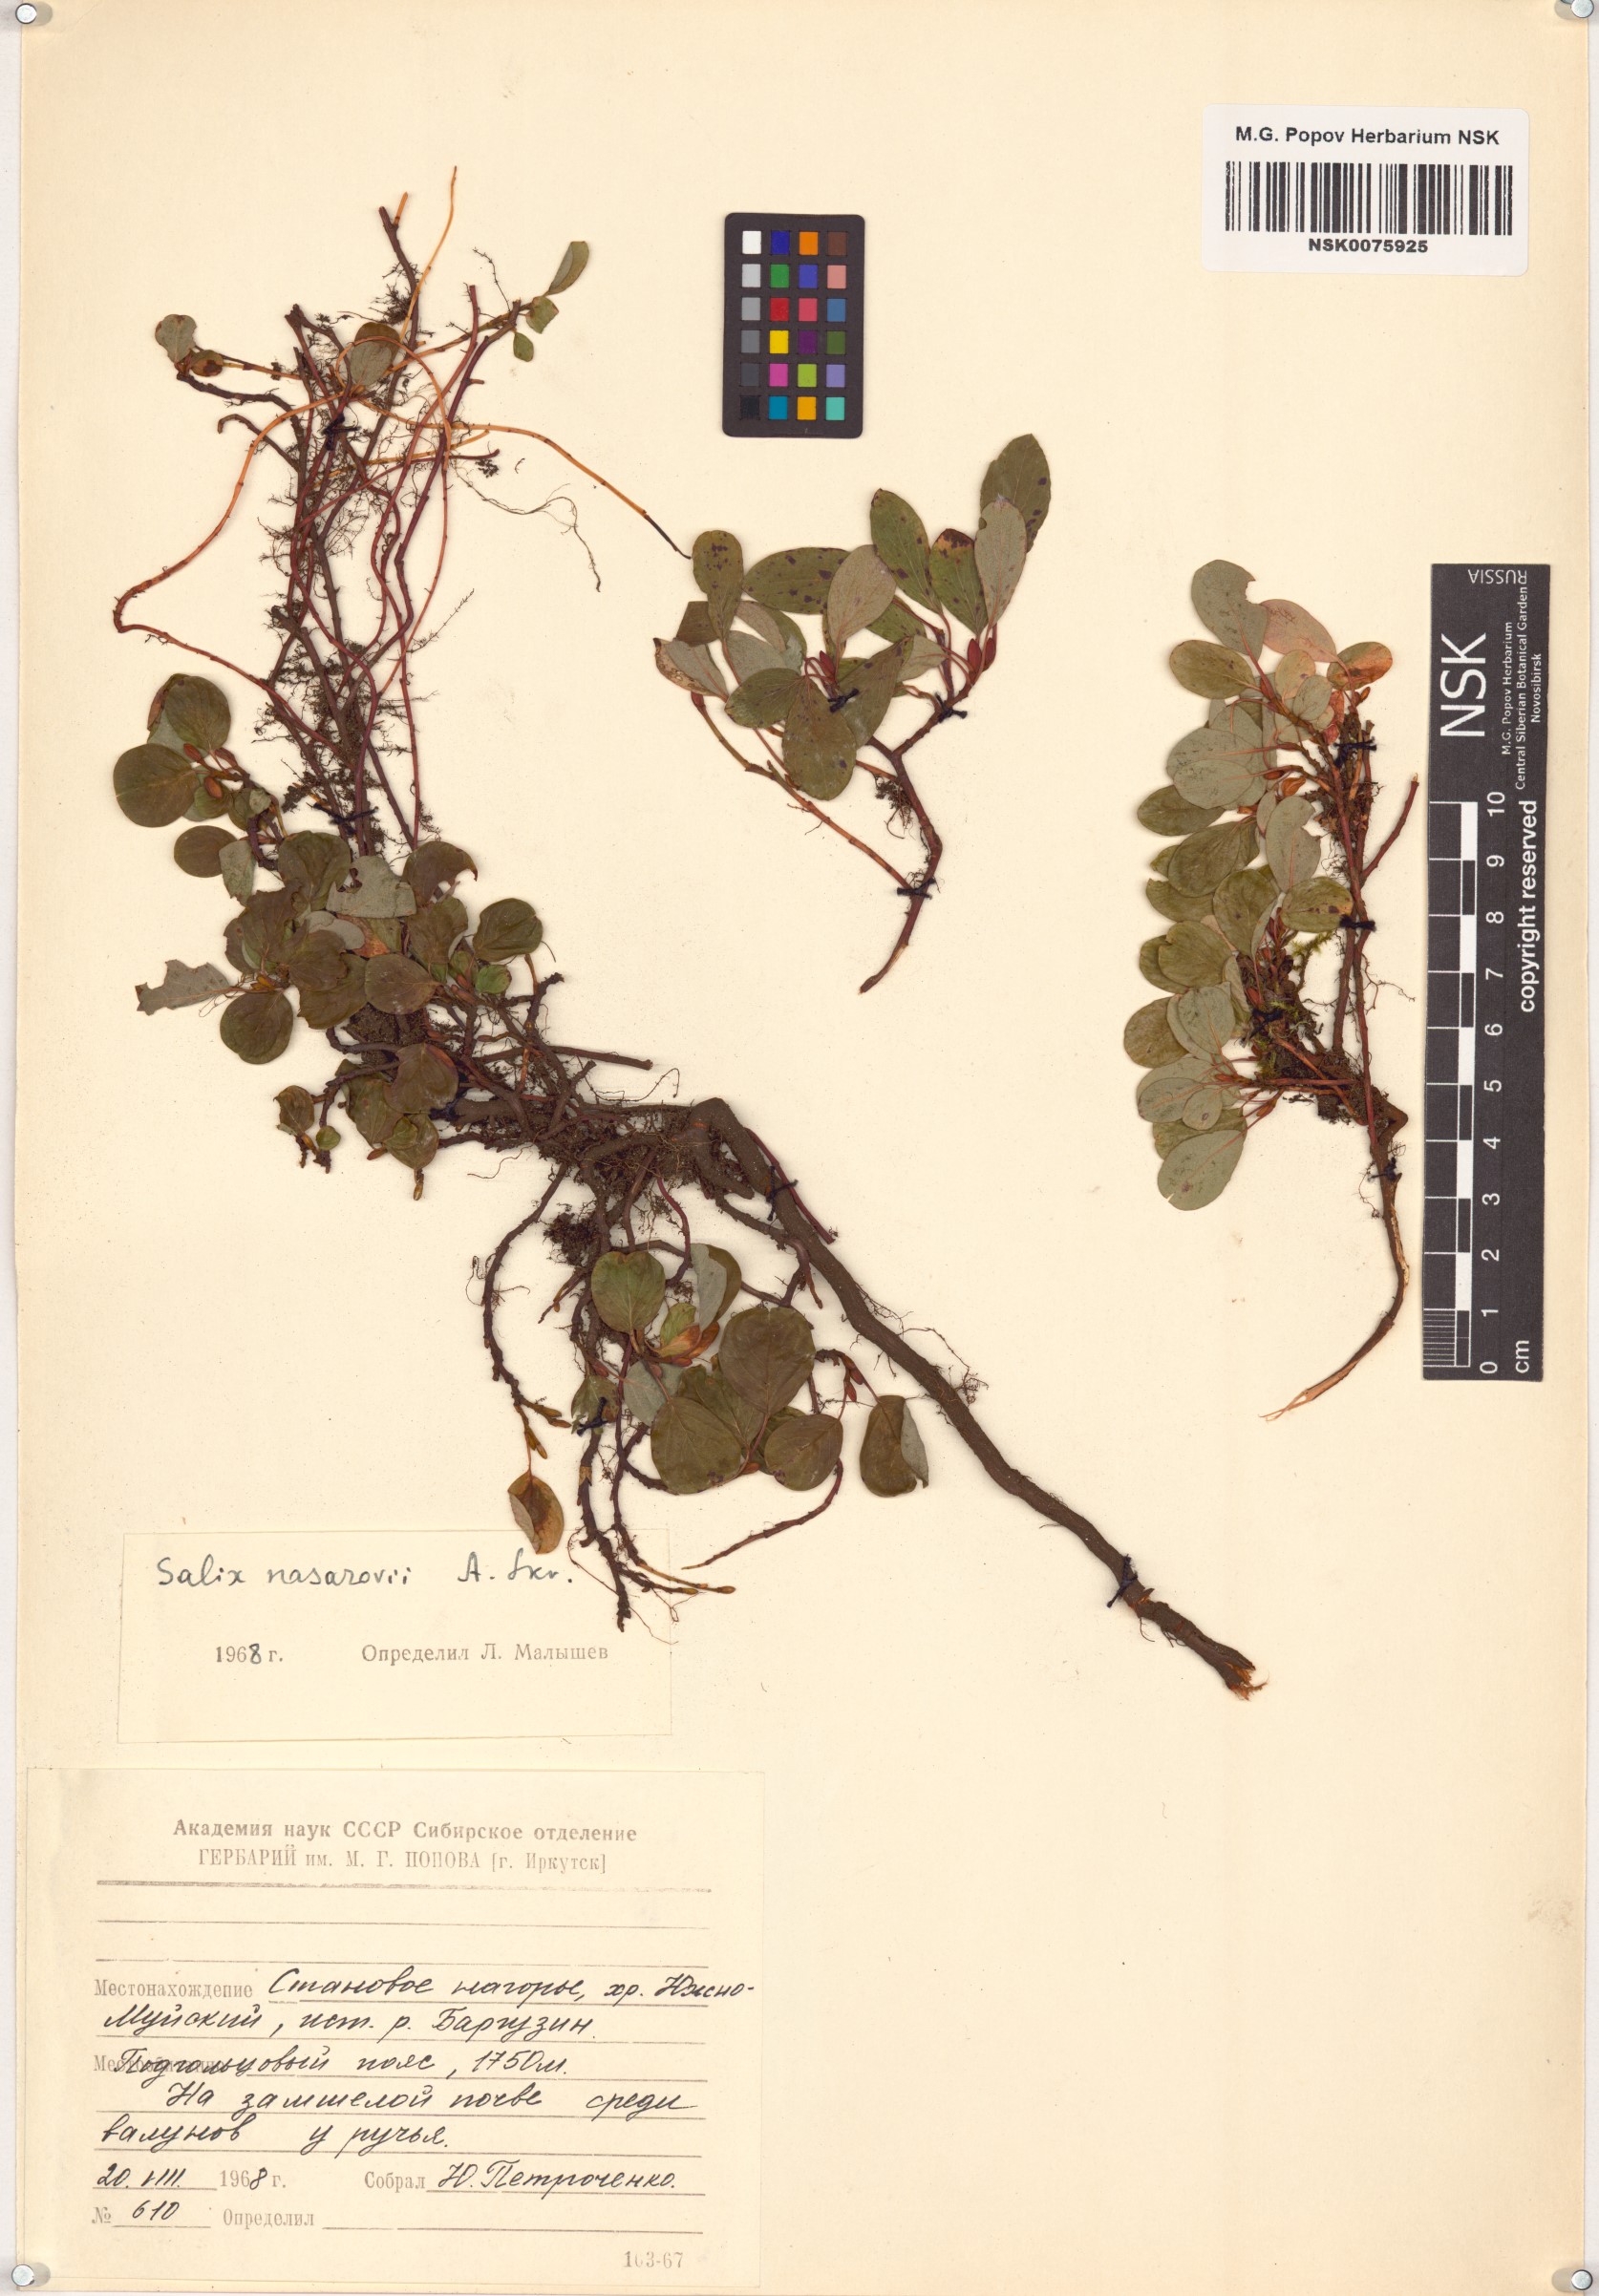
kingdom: Plantae
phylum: Tracheophyta
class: Magnoliopsida
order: Malpighiales
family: Salicaceae
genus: Salix
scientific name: Salix nasarovii
